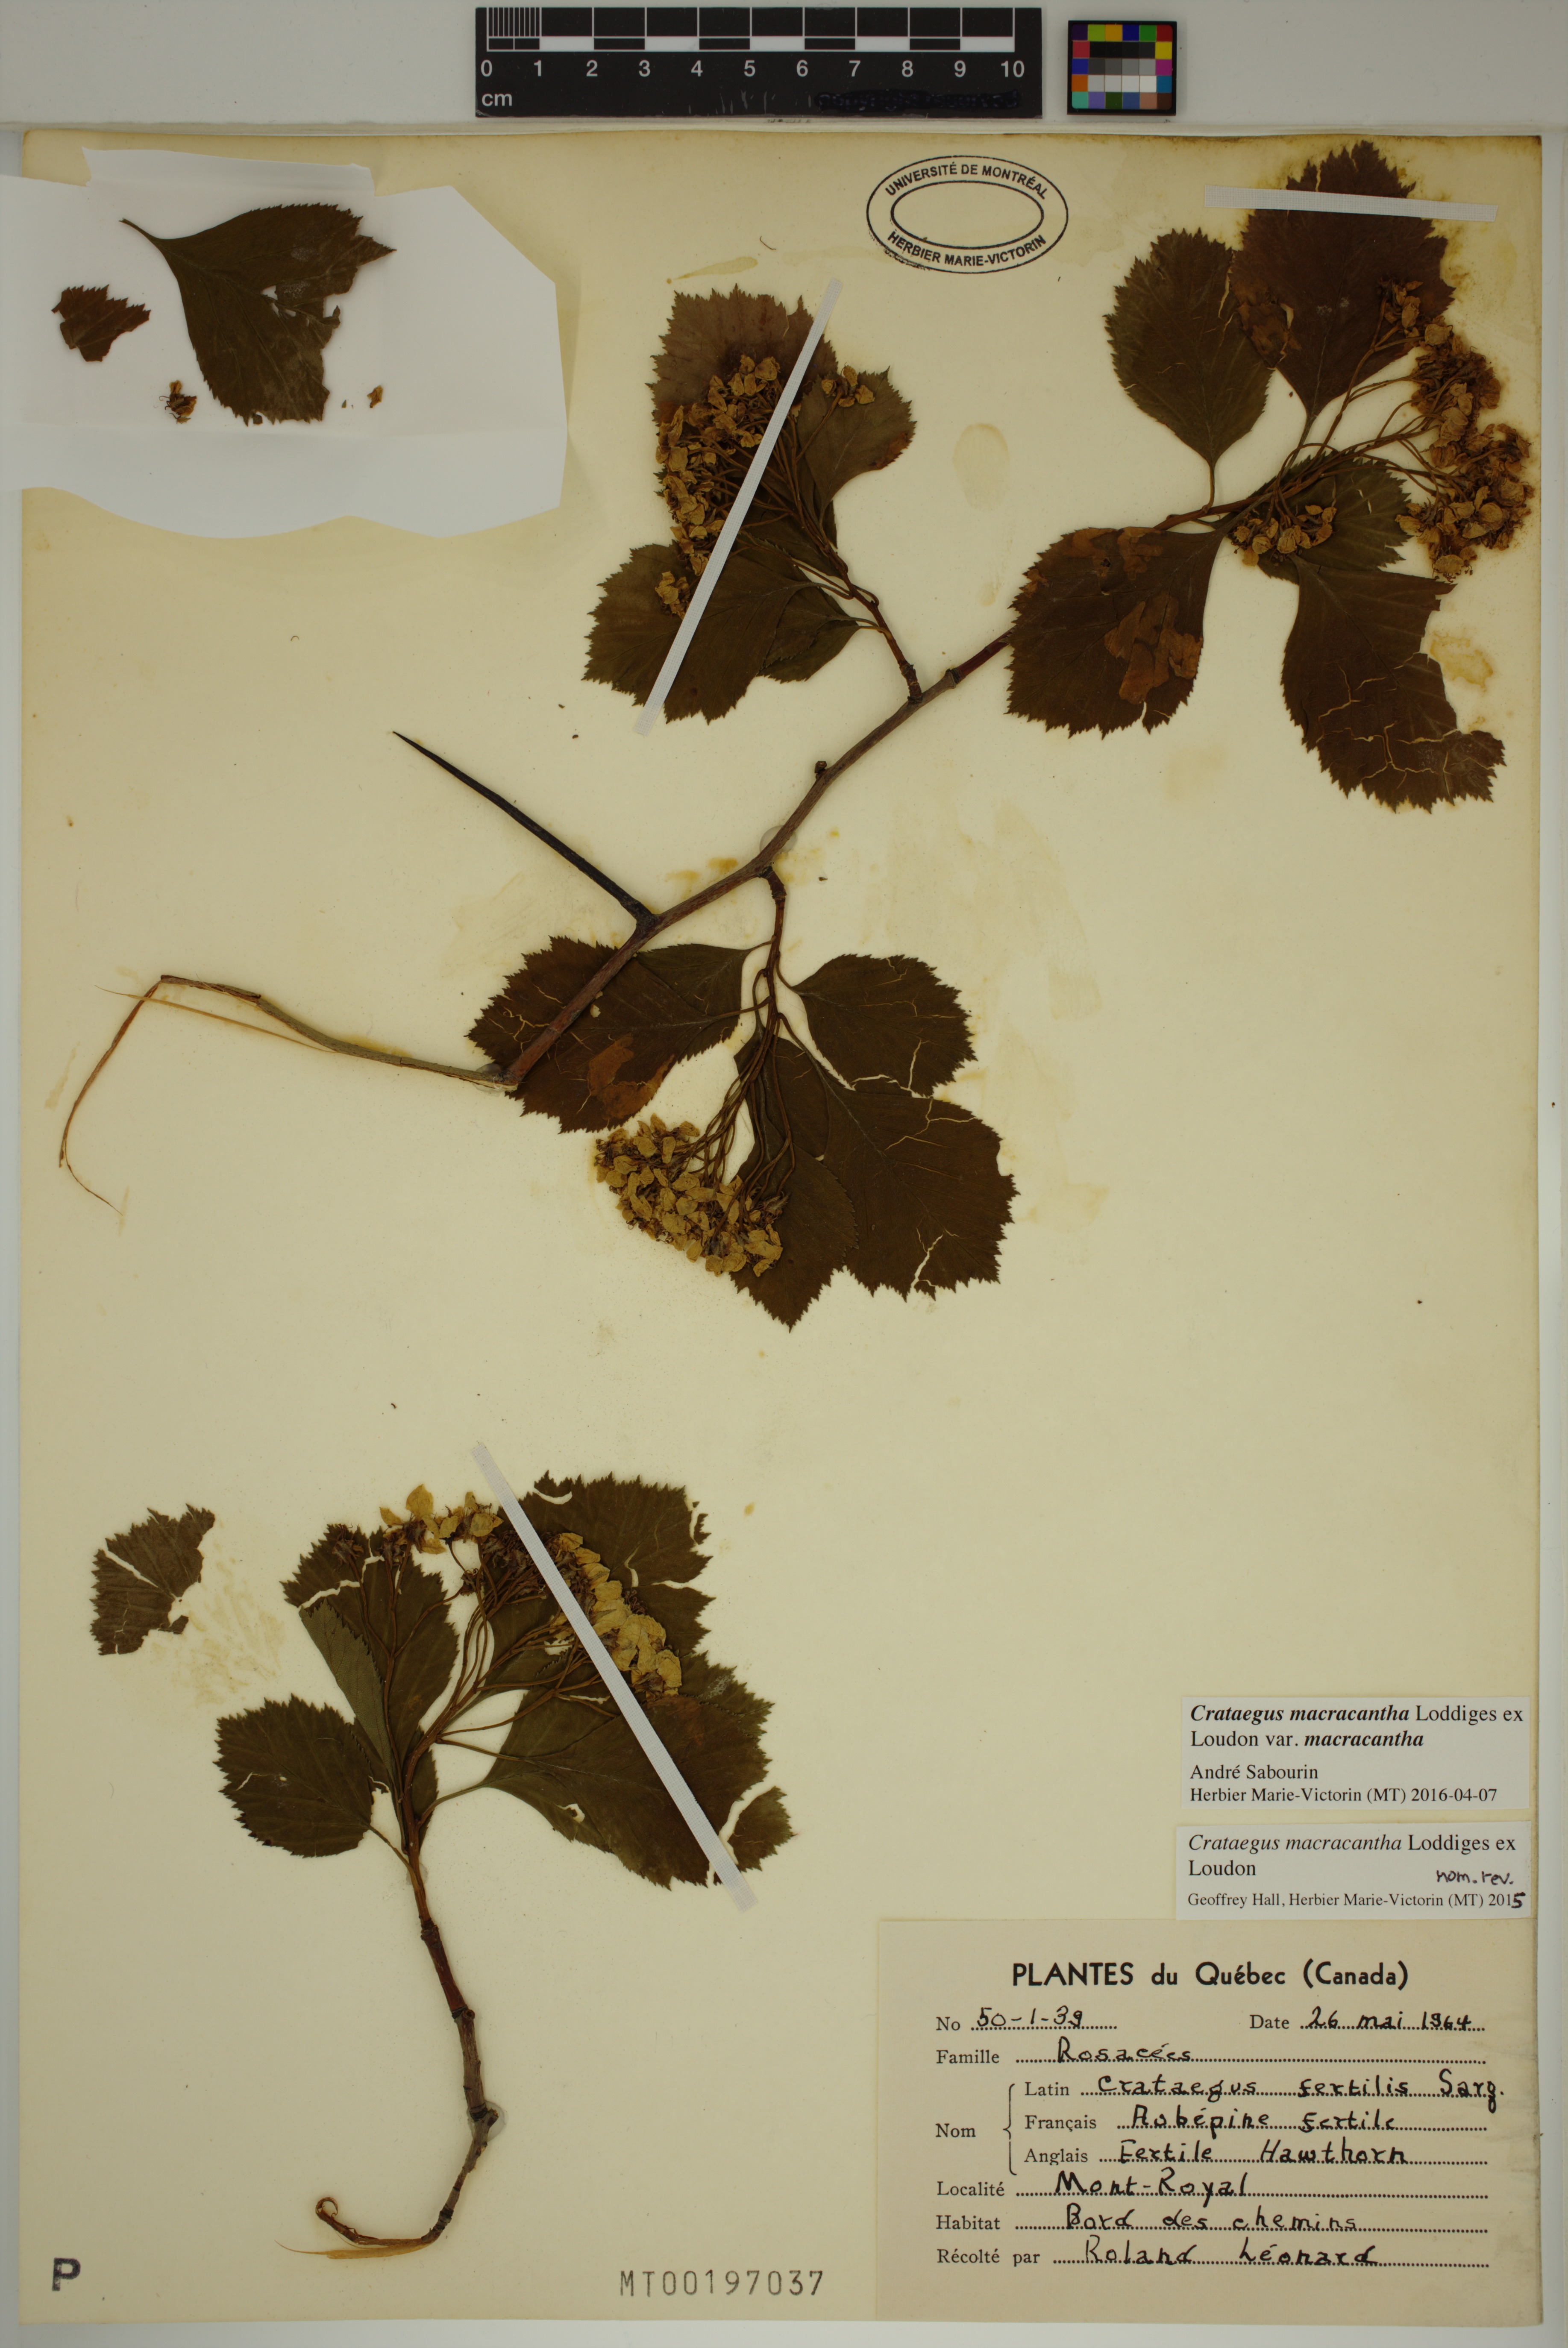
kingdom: Plantae
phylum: Tracheophyta
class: Magnoliopsida
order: Rosales
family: Rosaceae
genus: Crataegus
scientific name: Crataegus macracantha
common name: Large-thorn hawthorn
